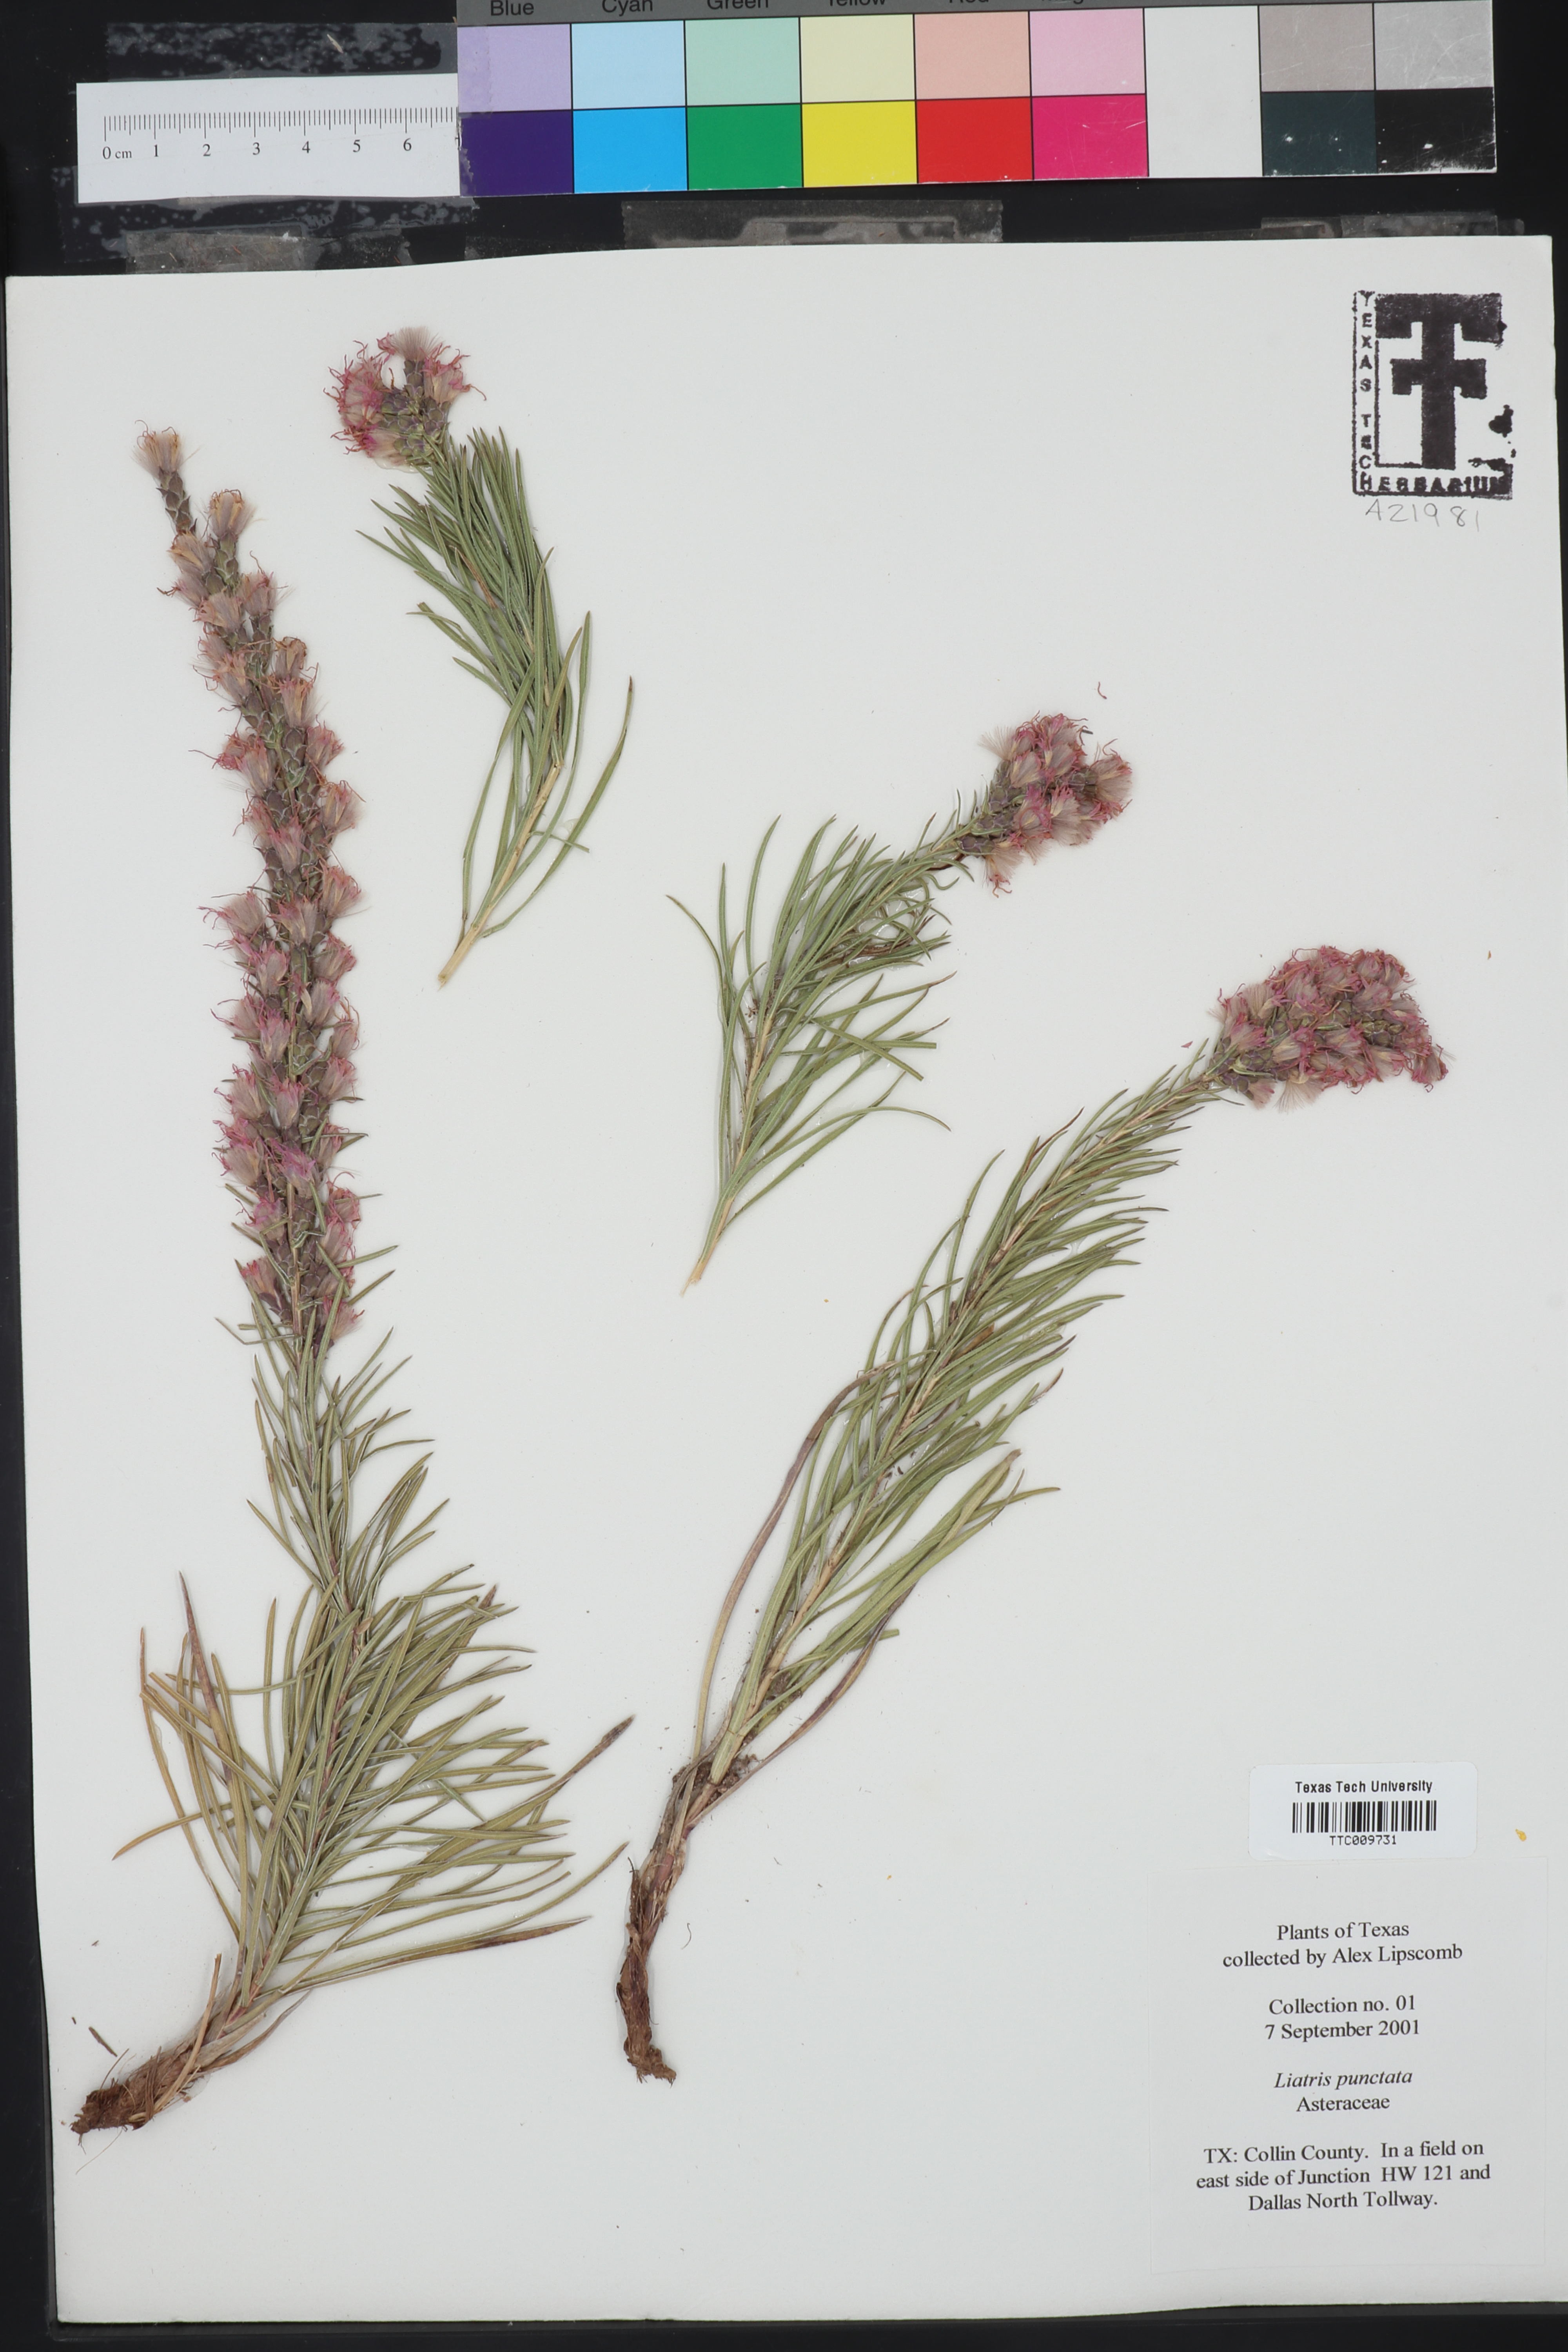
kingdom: Plantae
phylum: Tracheophyta
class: Magnoliopsida
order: Asterales
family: Asteraceae
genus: Liatris
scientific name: Liatris punctata
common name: Dotted gayfeather
